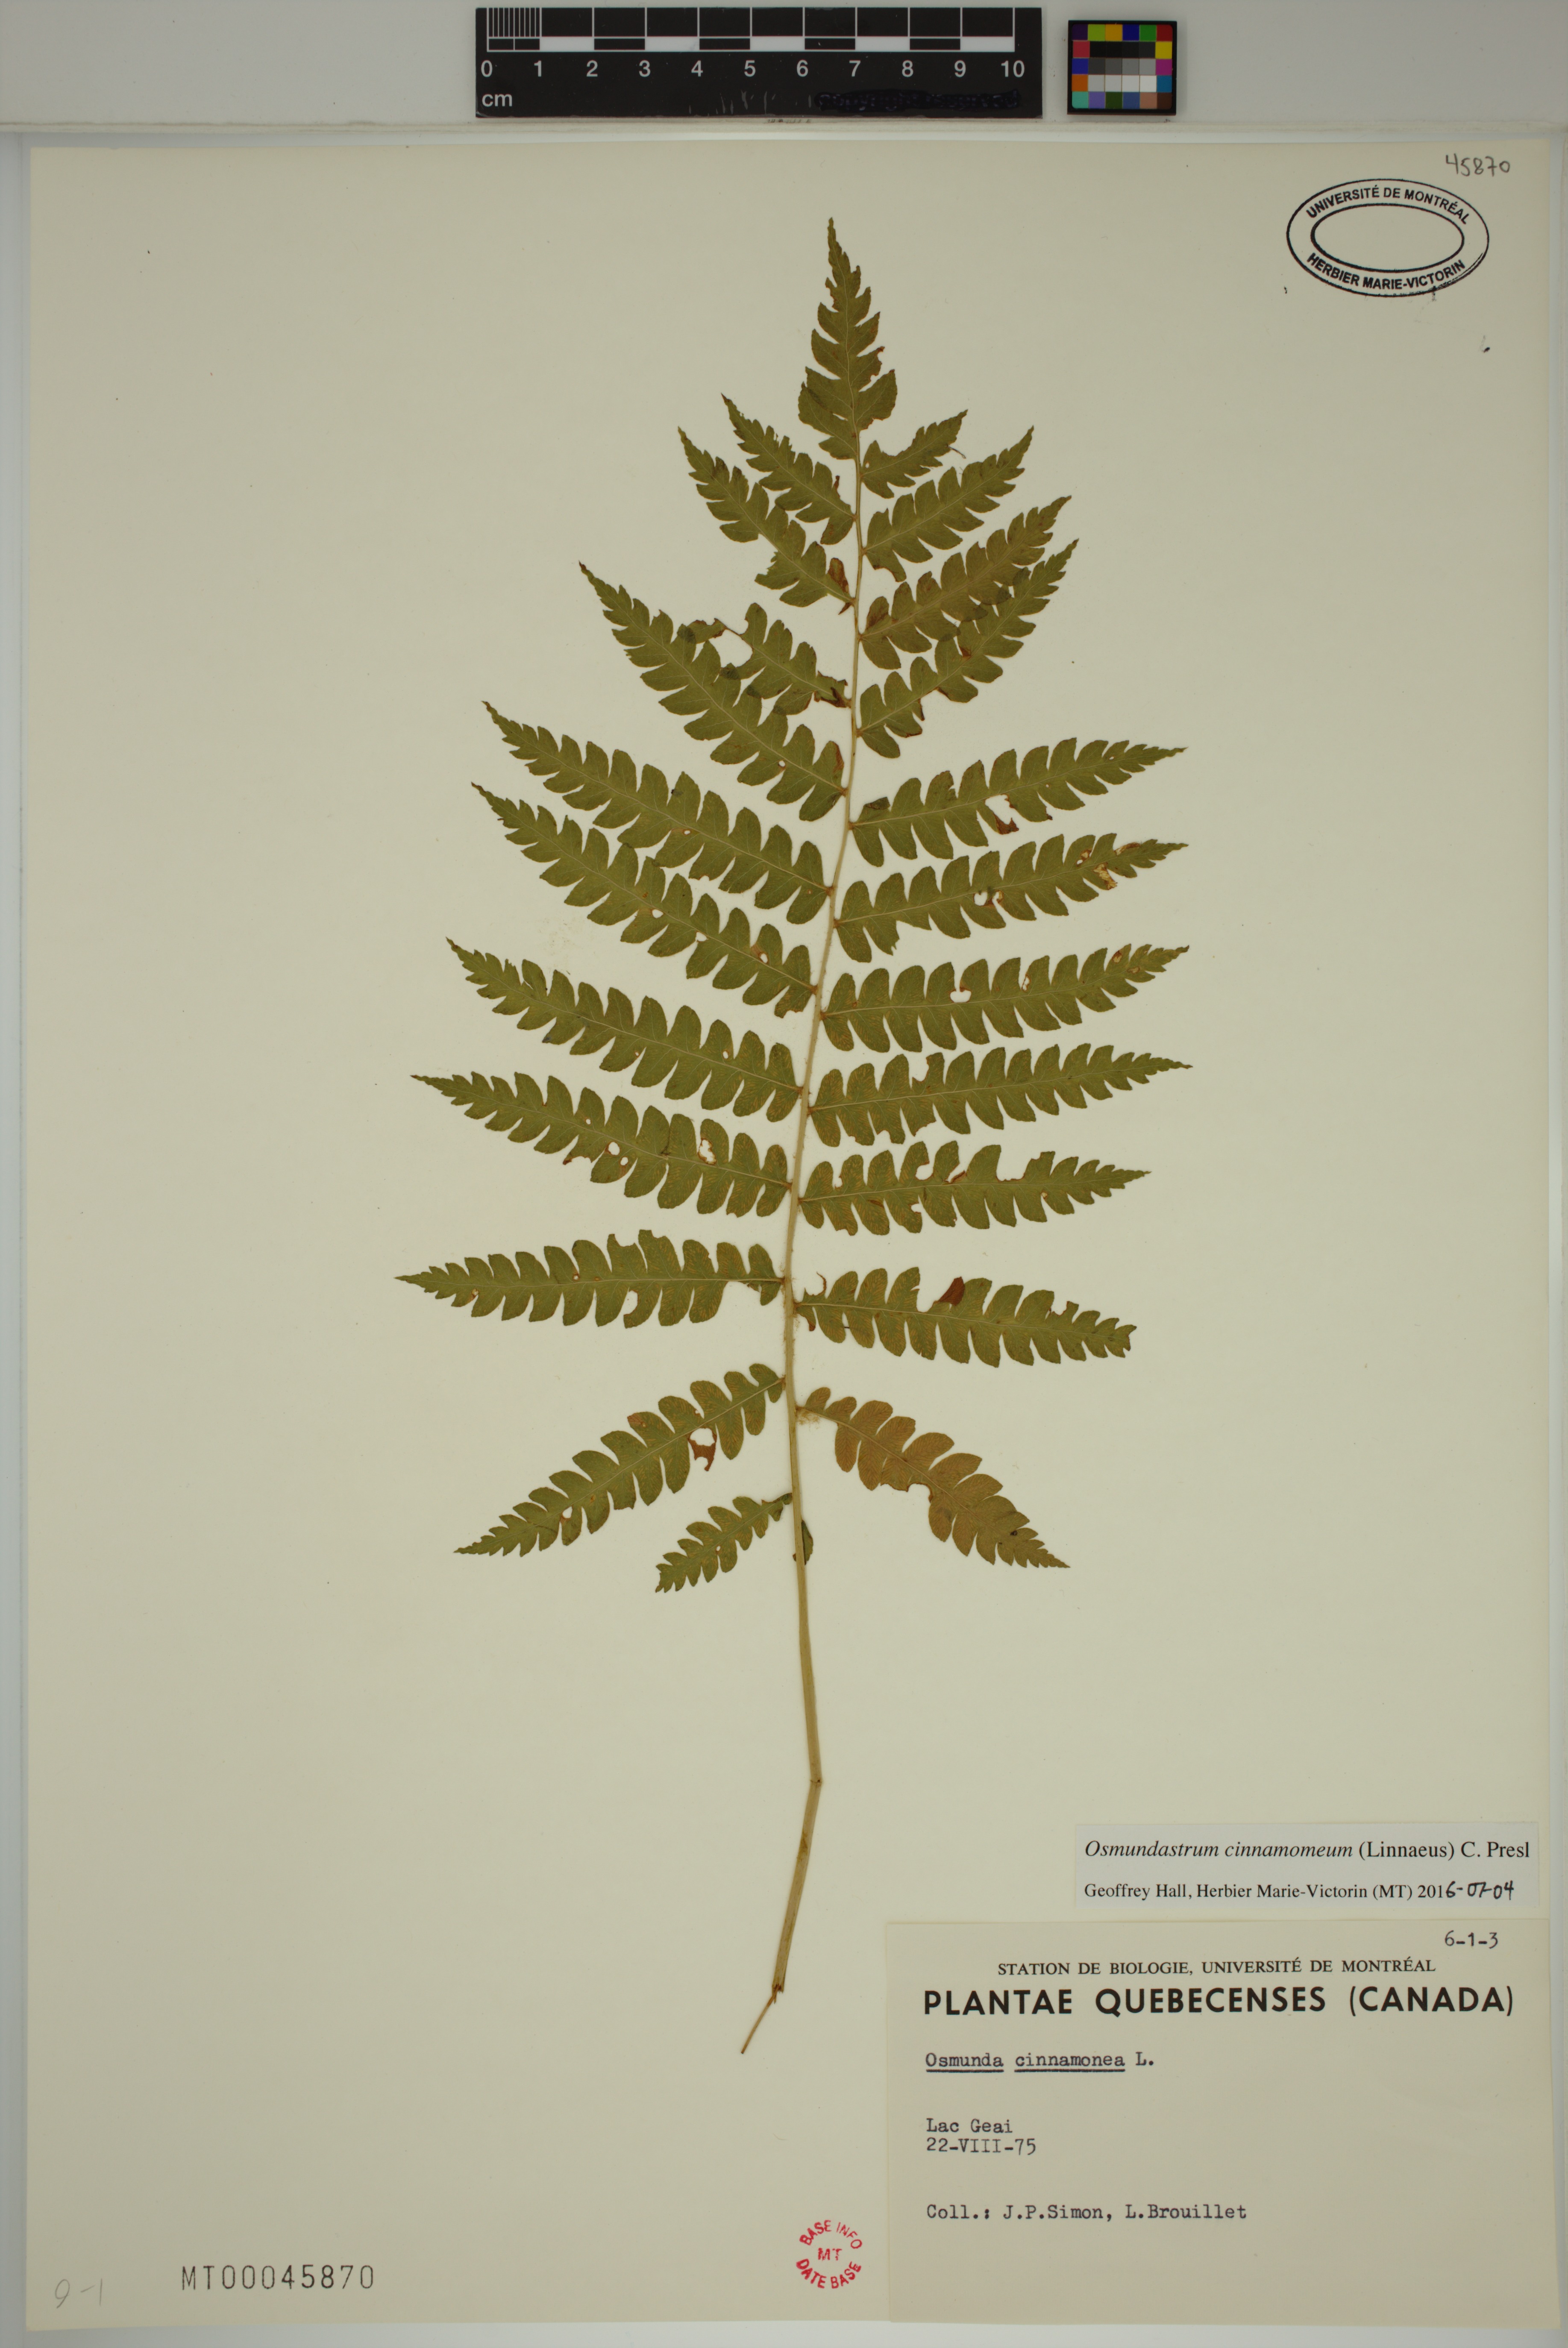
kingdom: Plantae
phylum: Tracheophyta
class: Polypodiopsida
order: Osmundales
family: Osmundaceae
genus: Osmundastrum
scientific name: Osmundastrum cinnamomeum
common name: Cinnamon fern
